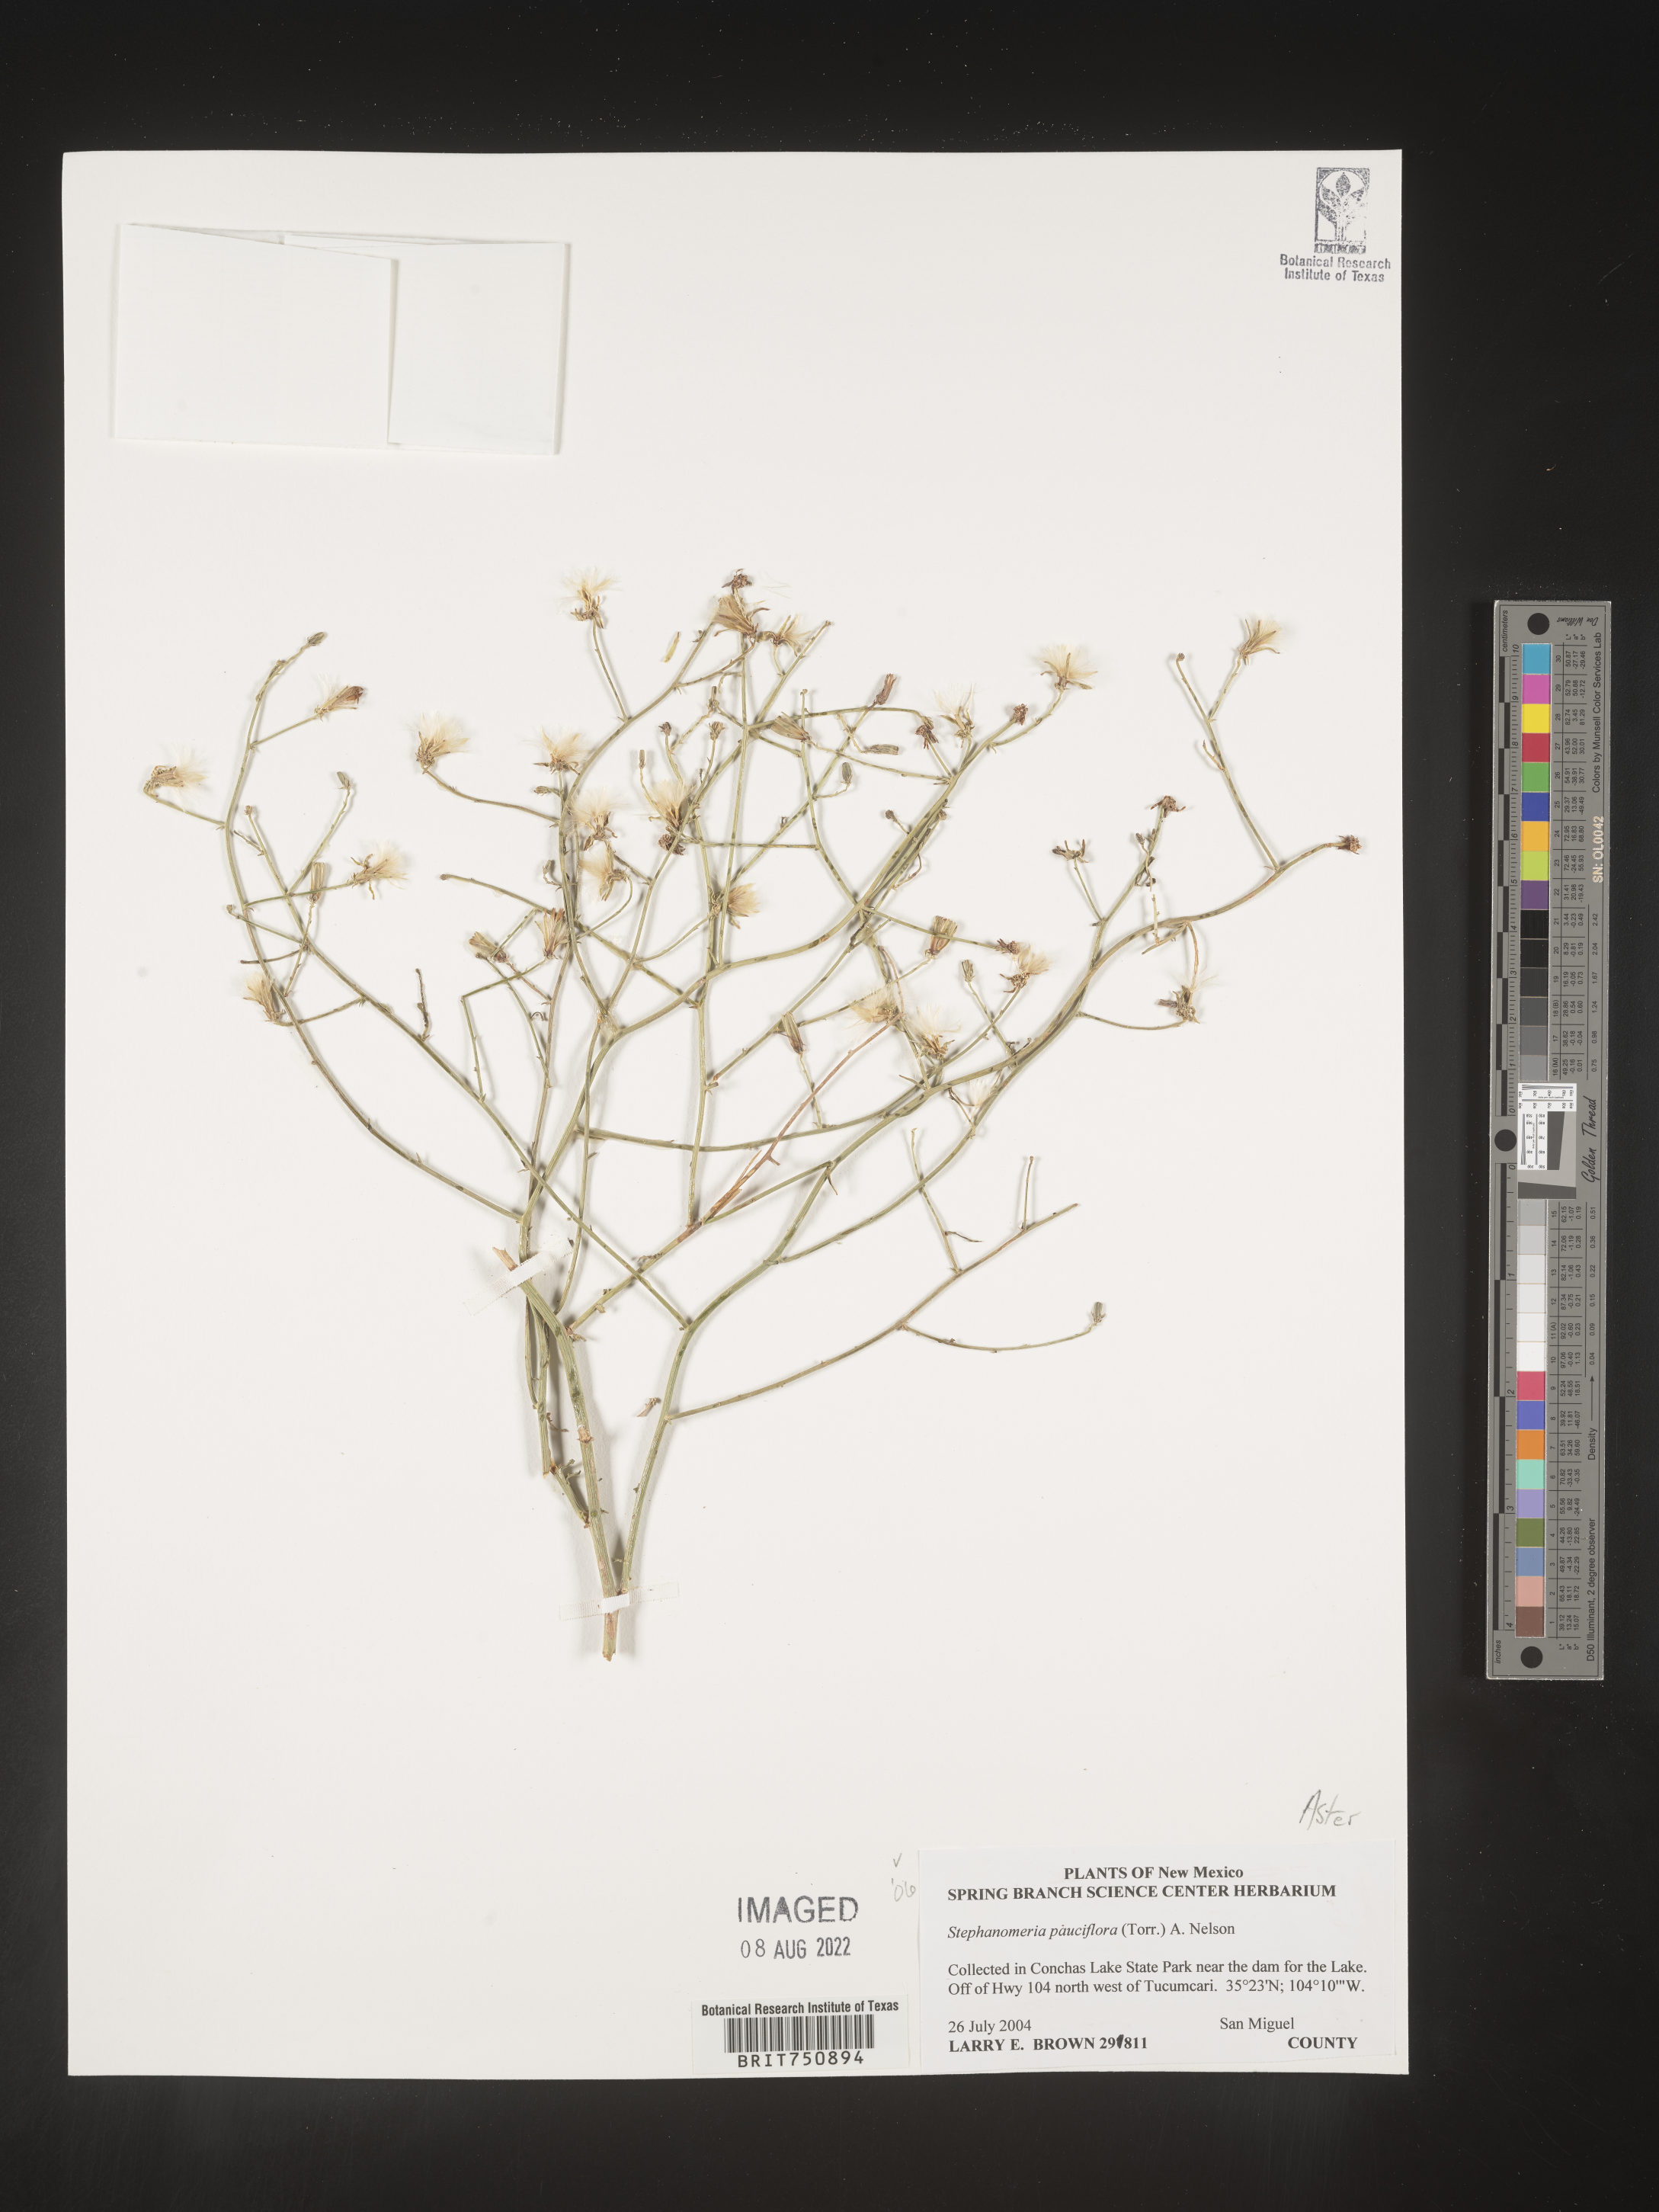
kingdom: Plantae
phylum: Tracheophyta
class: Magnoliopsida
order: Asterales
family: Asteraceae
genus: Stephanomeria
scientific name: Stephanomeria pauciflora
